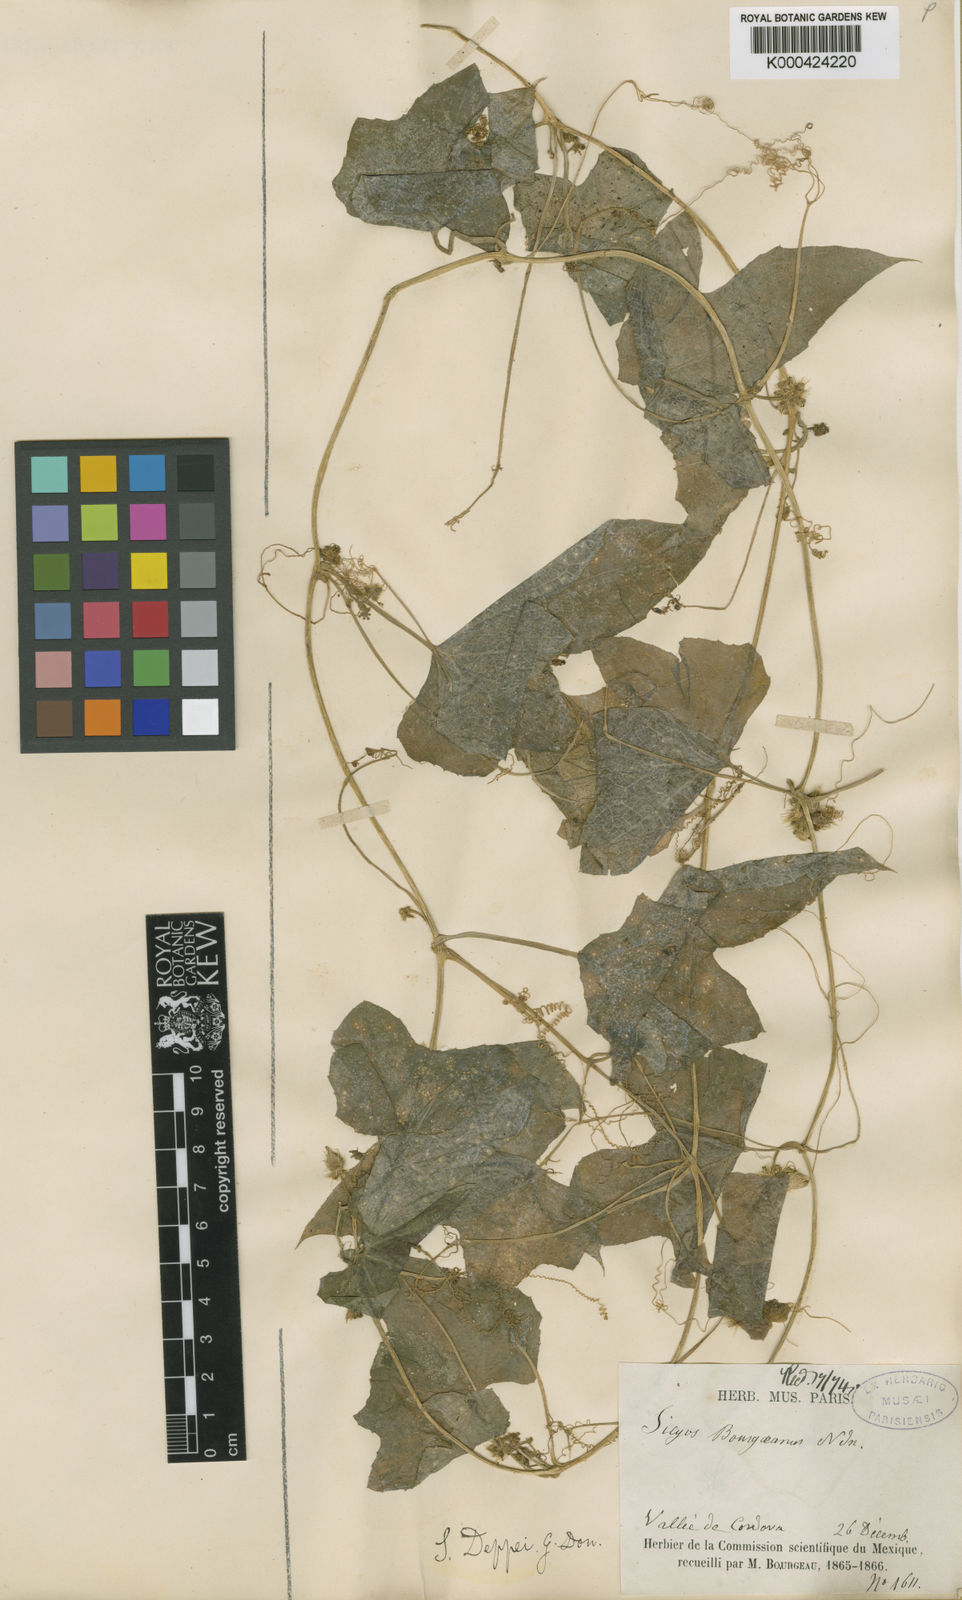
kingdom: Plantae
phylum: Tracheophyta
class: Magnoliopsida
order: Cucurbitales
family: Cucurbitaceae
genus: Sicyos
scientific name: Sicyos microphyllos
